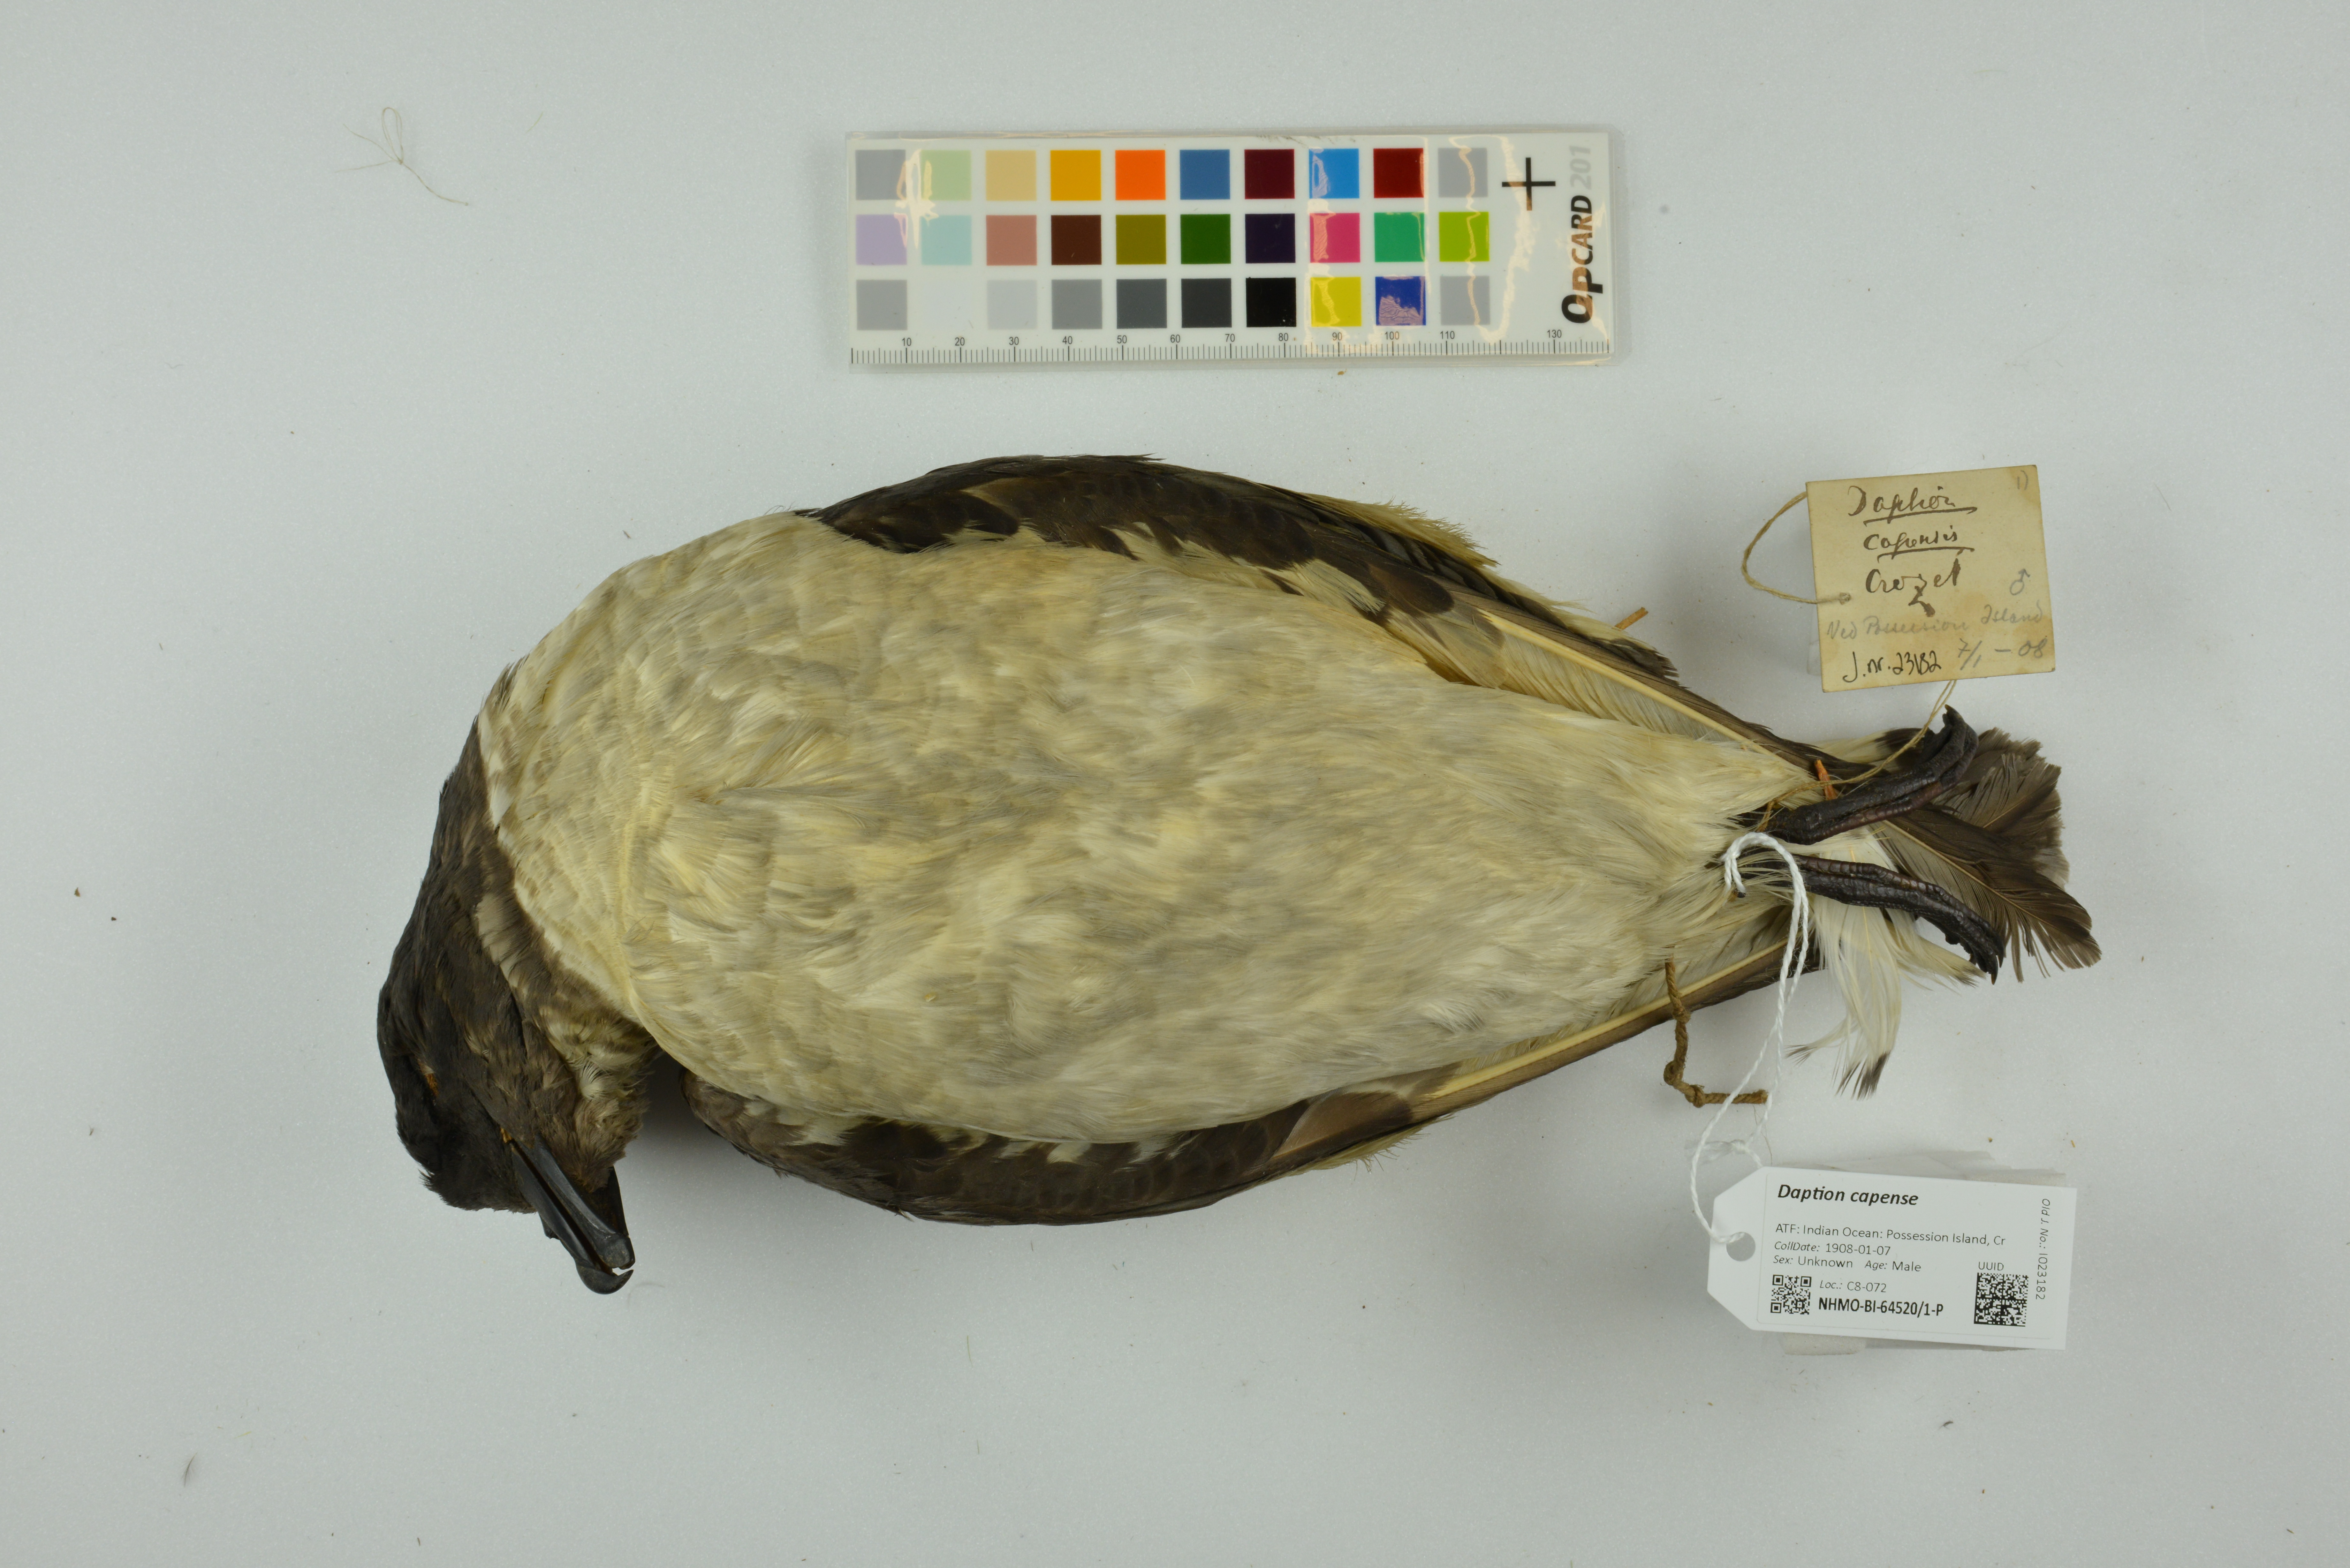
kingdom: Animalia
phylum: Chordata
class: Aves
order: Procellariiformes
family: Procellariidae
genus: Daption
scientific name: Daption capense
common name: Cape petrel
